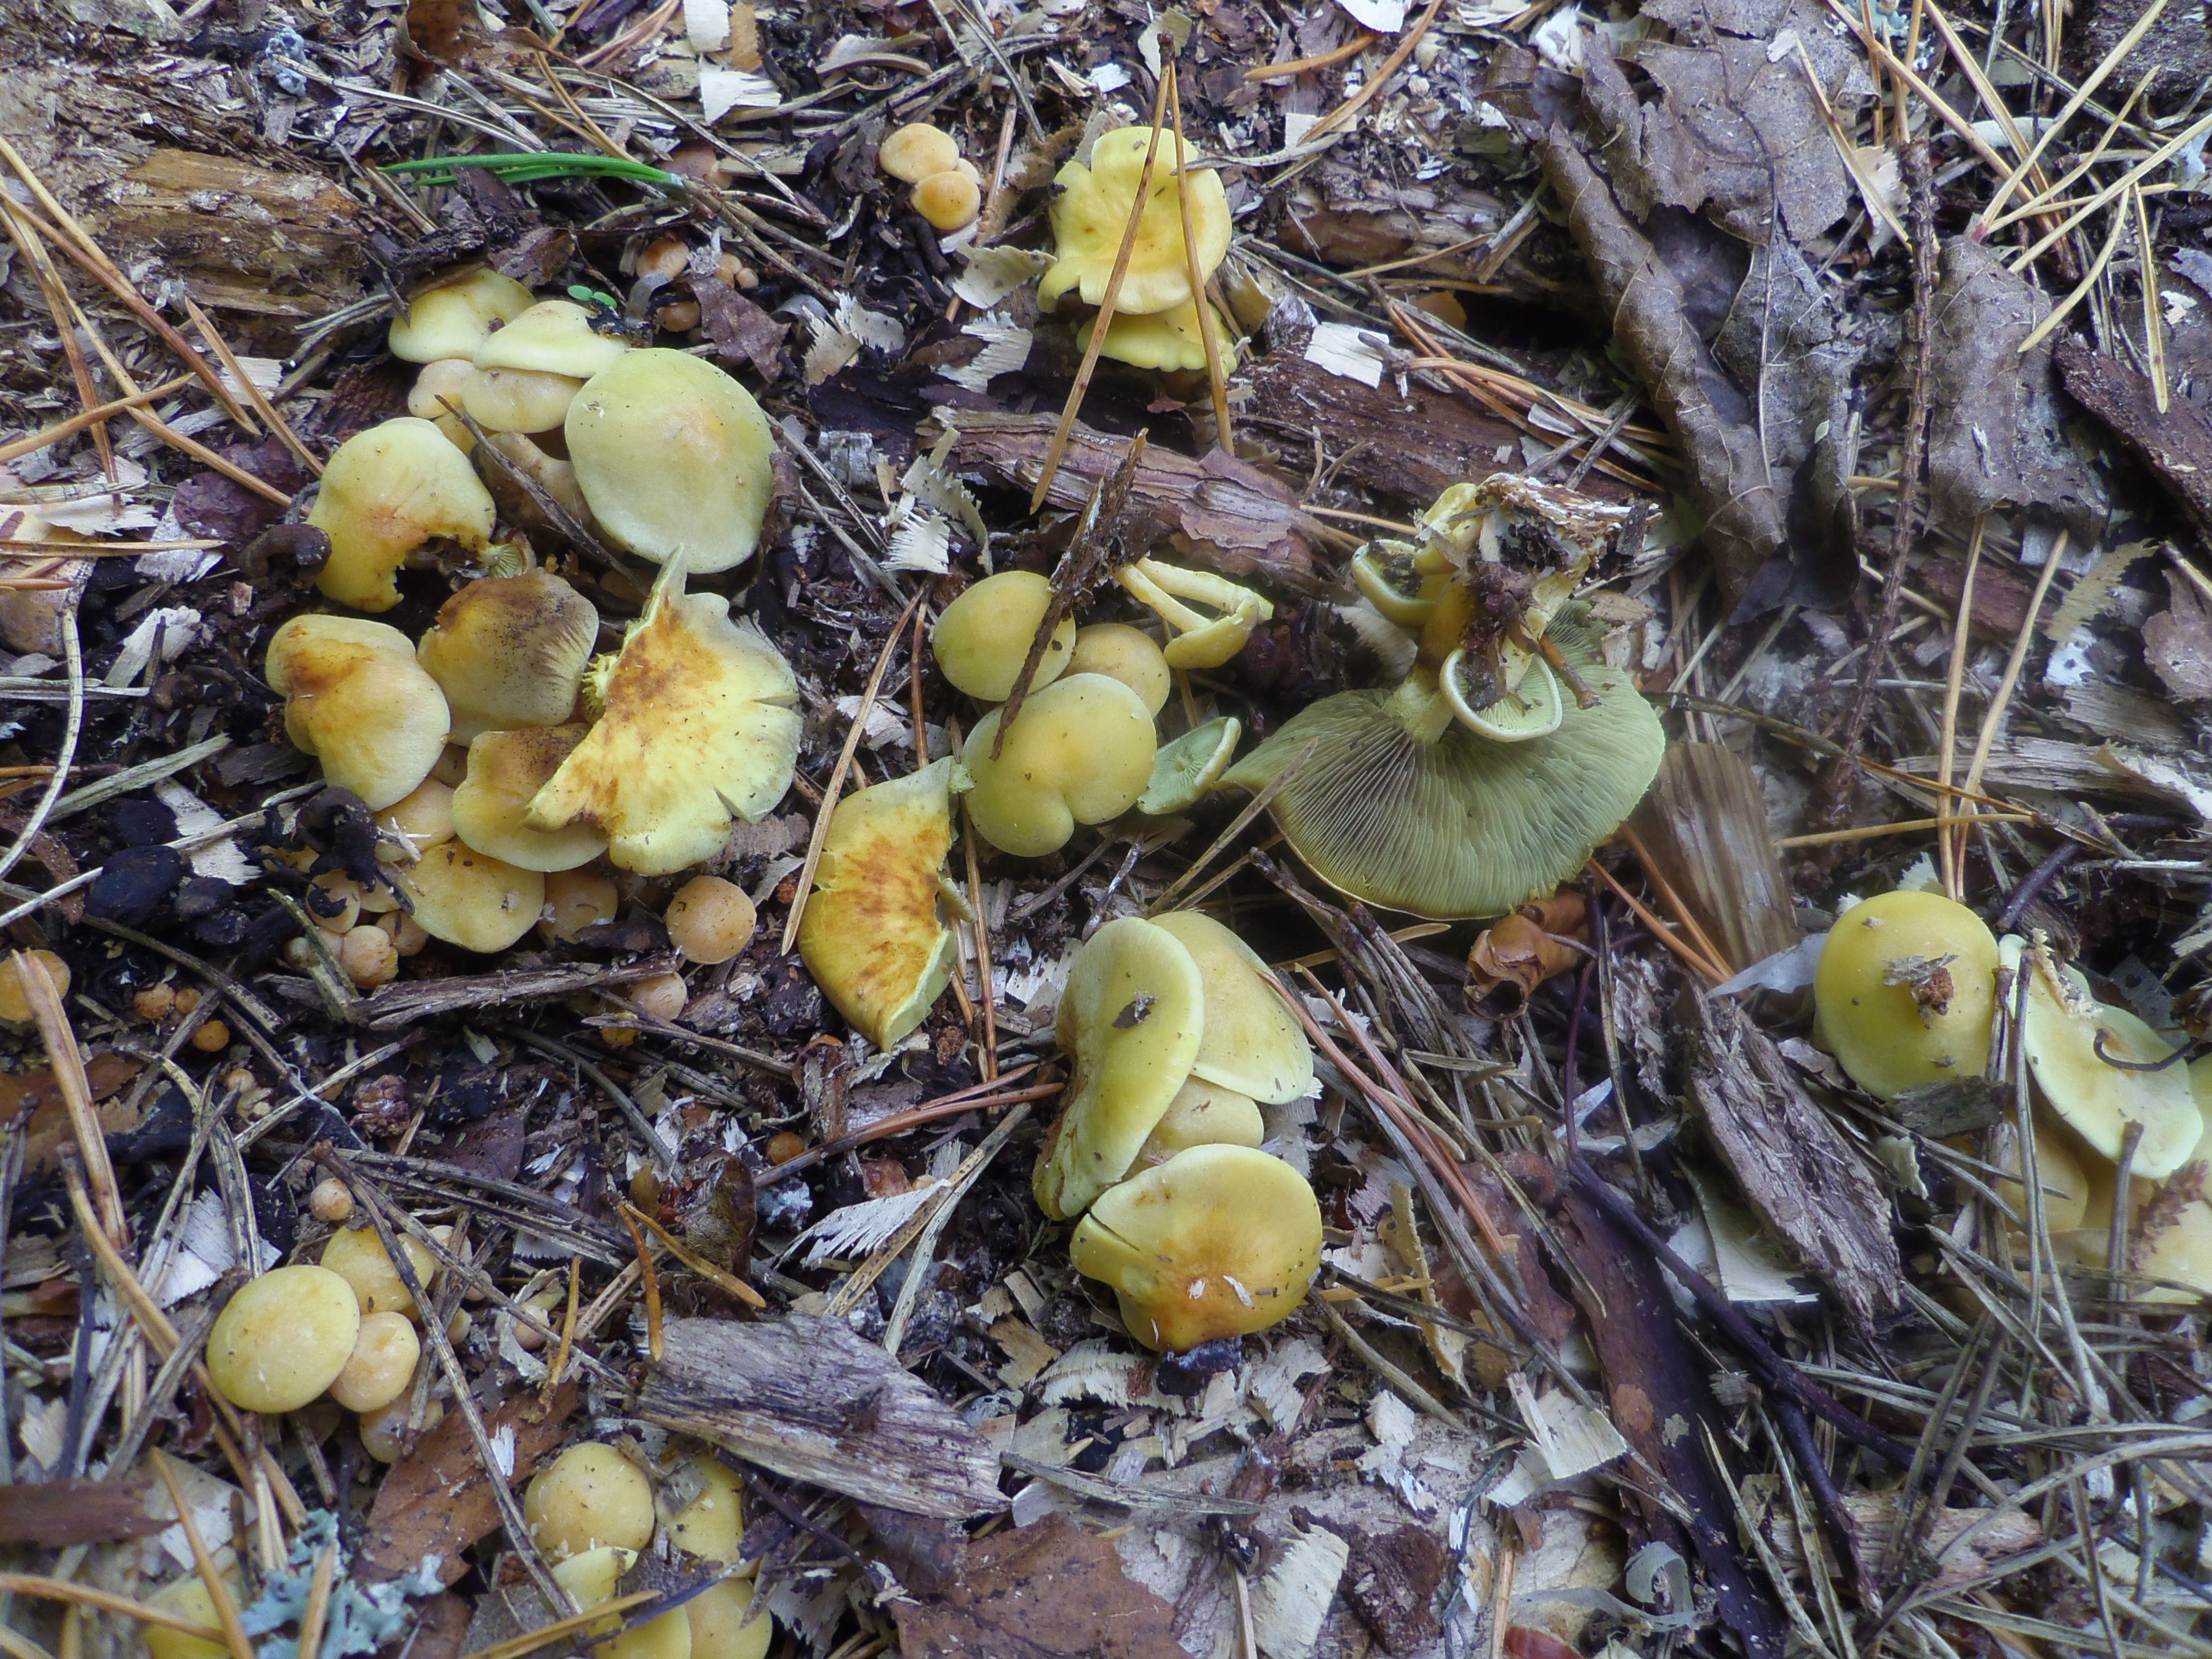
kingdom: Fungi
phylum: Basidiomycota
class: Agaricomycetes
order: Agaricales
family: Strophariaceae
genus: Hypholoma
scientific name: Hypholoma fasciculare
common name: Sulphur tuft
